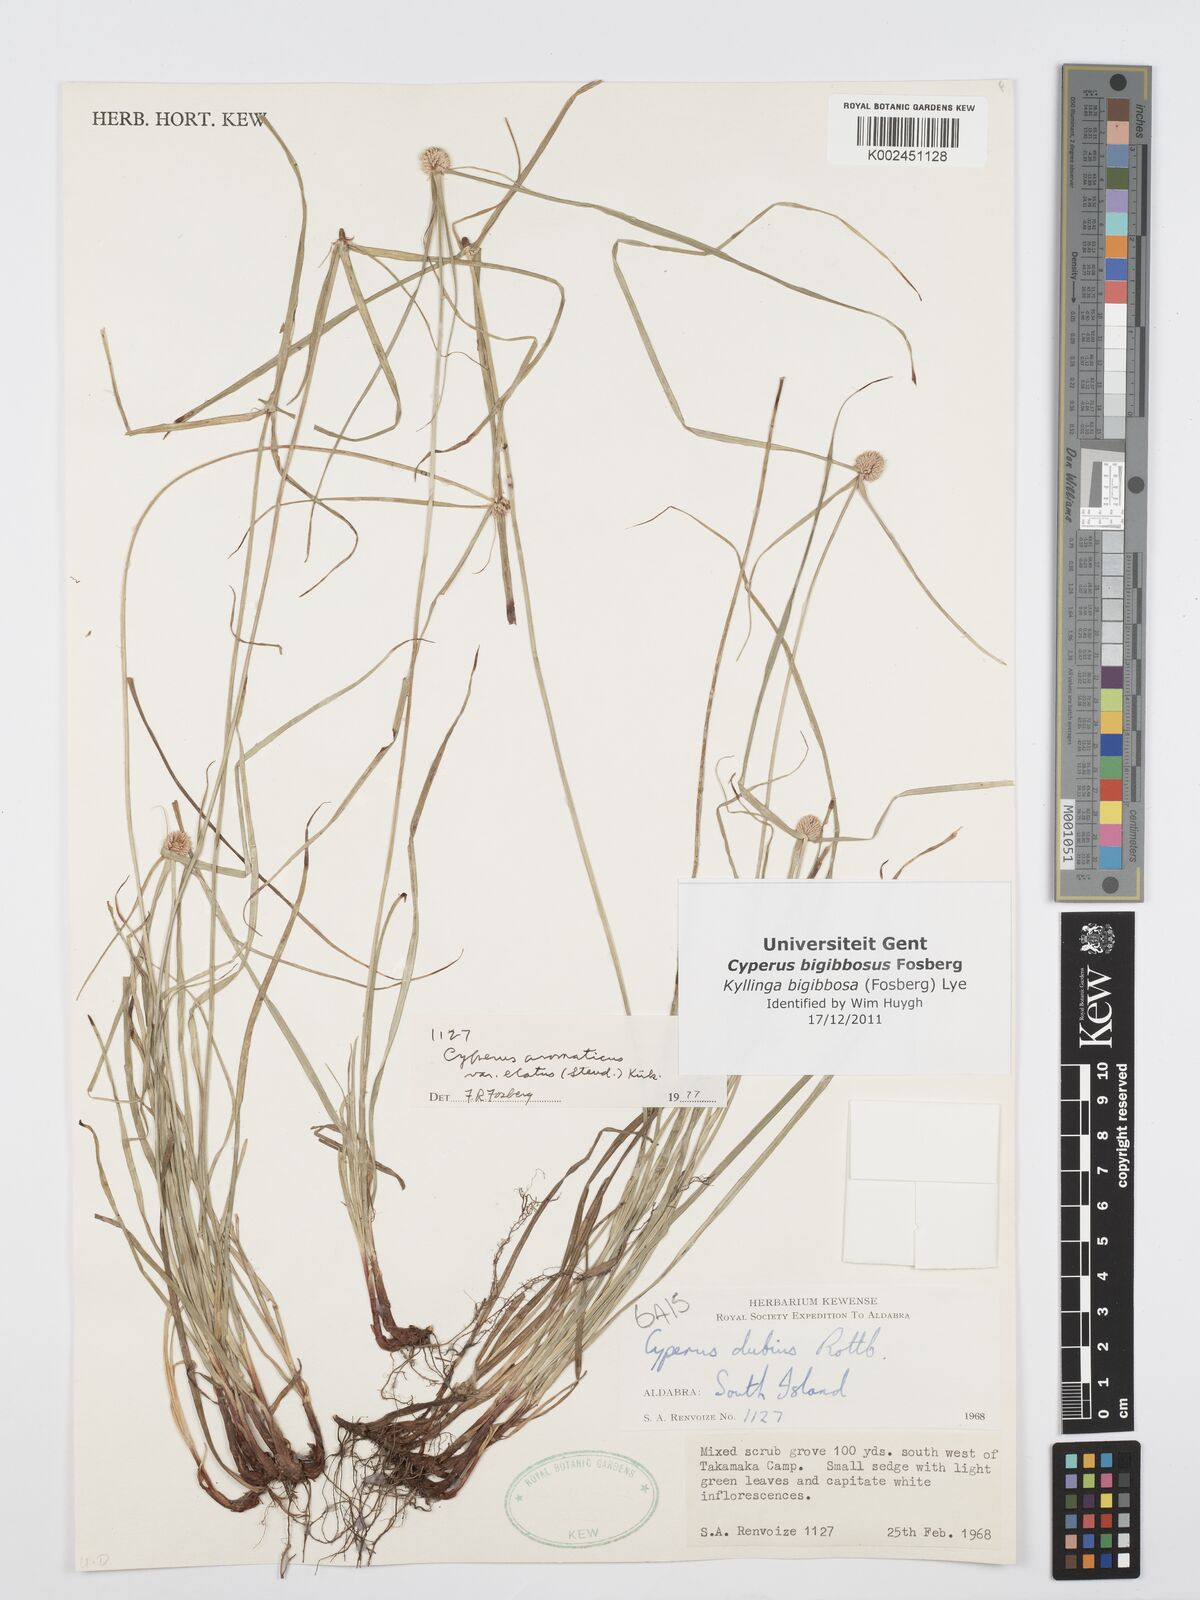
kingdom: Plantae
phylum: Tracheophyta
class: Liliopsida
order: Poales
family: Cyperaceae
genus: Cyperus
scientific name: Cyperus bigibbosa
